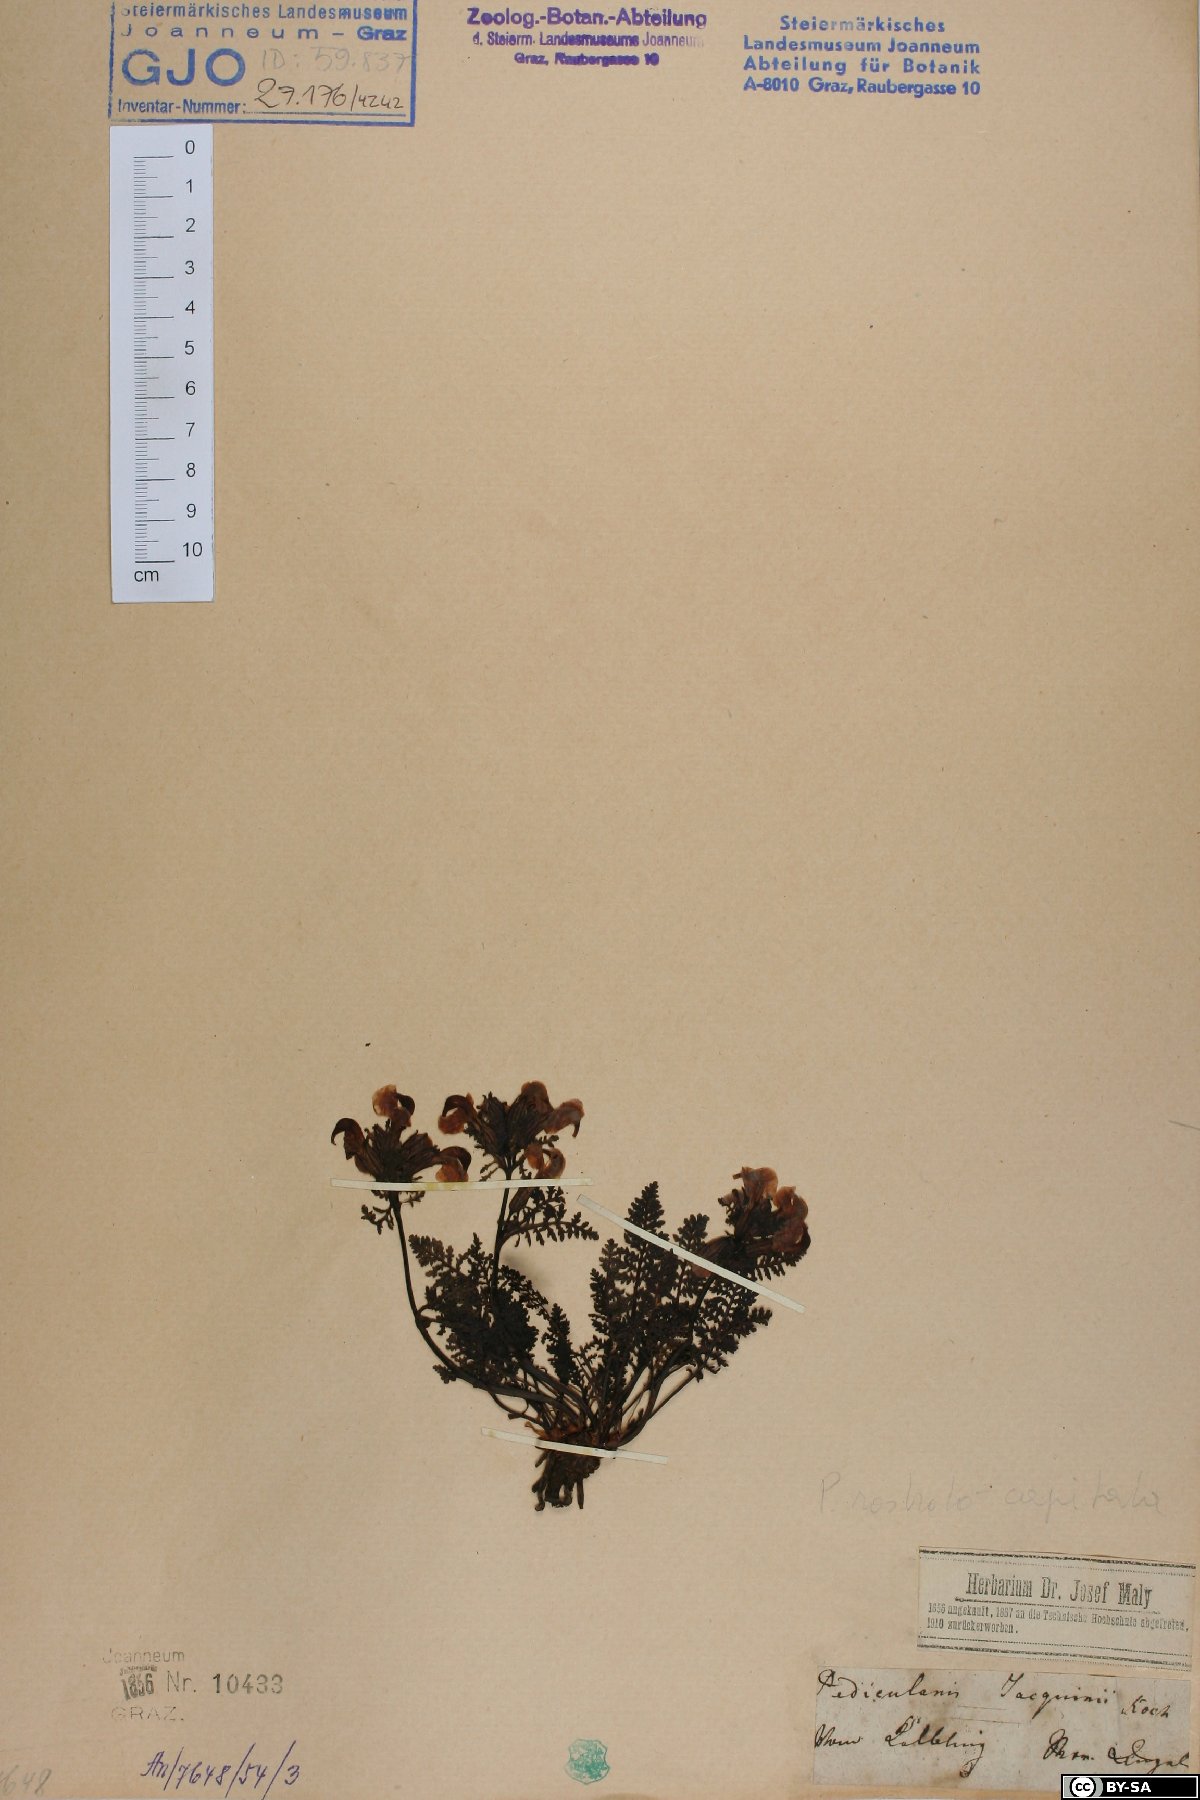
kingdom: Plantae
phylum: Tracheophyta
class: Magnoliopsida
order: Lamiales
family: Orobanchaceae
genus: Pedicularis
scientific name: Pedicularis rostratocapitata
